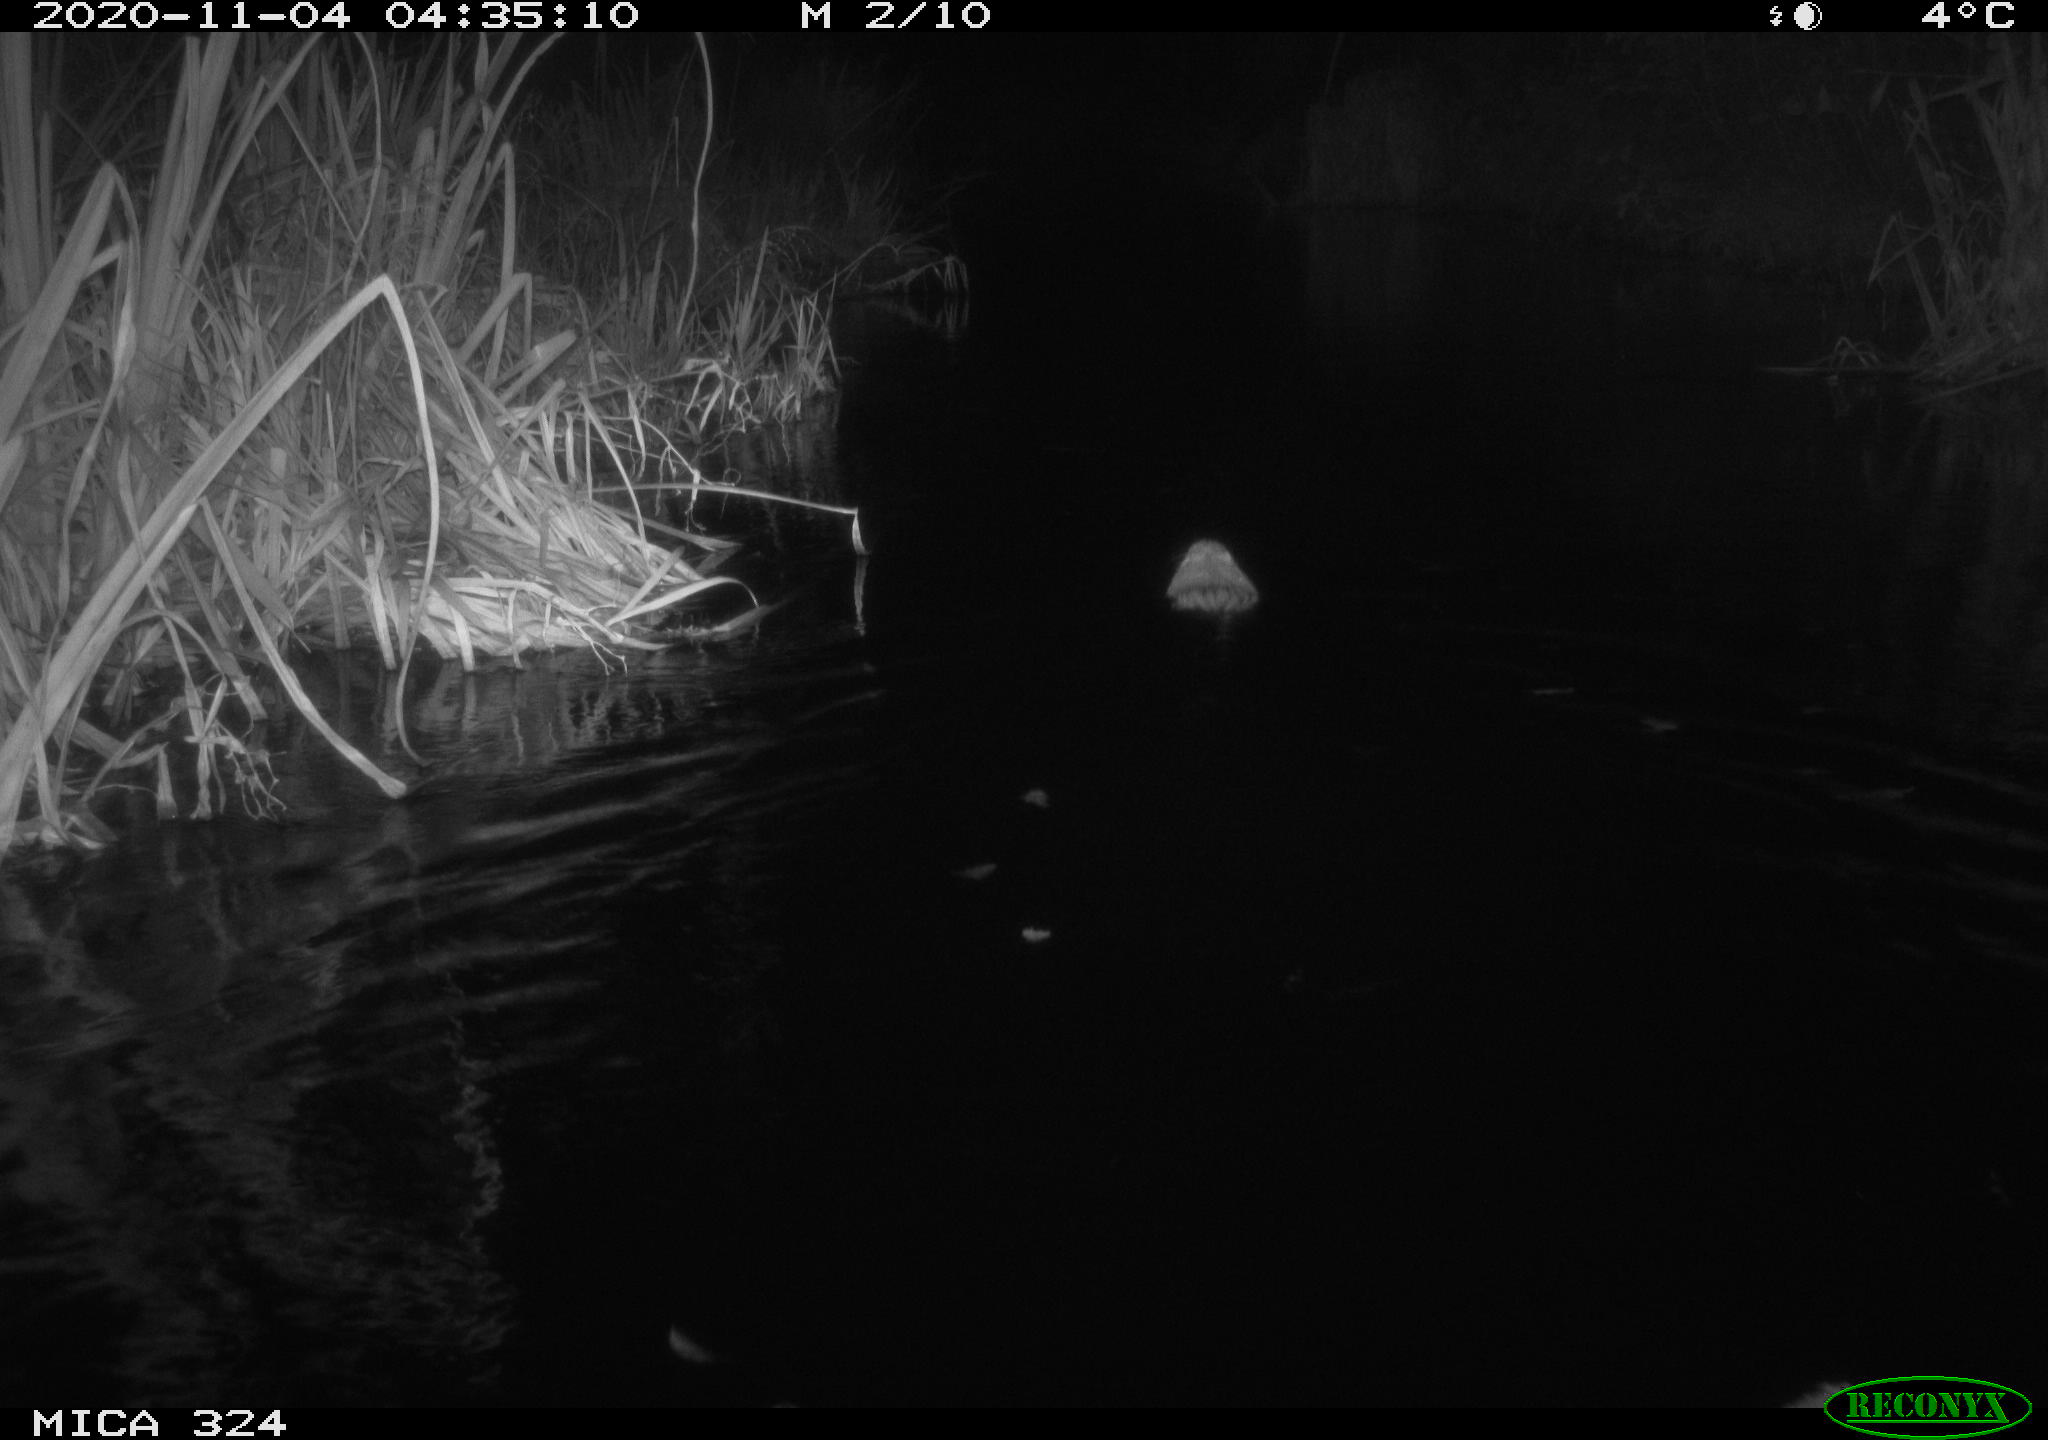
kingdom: Animalia
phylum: Chordata
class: Mammalia
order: Rodentia
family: Myocastoridae
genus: Myocastor
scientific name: Myocastor coypus
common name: Coypu
